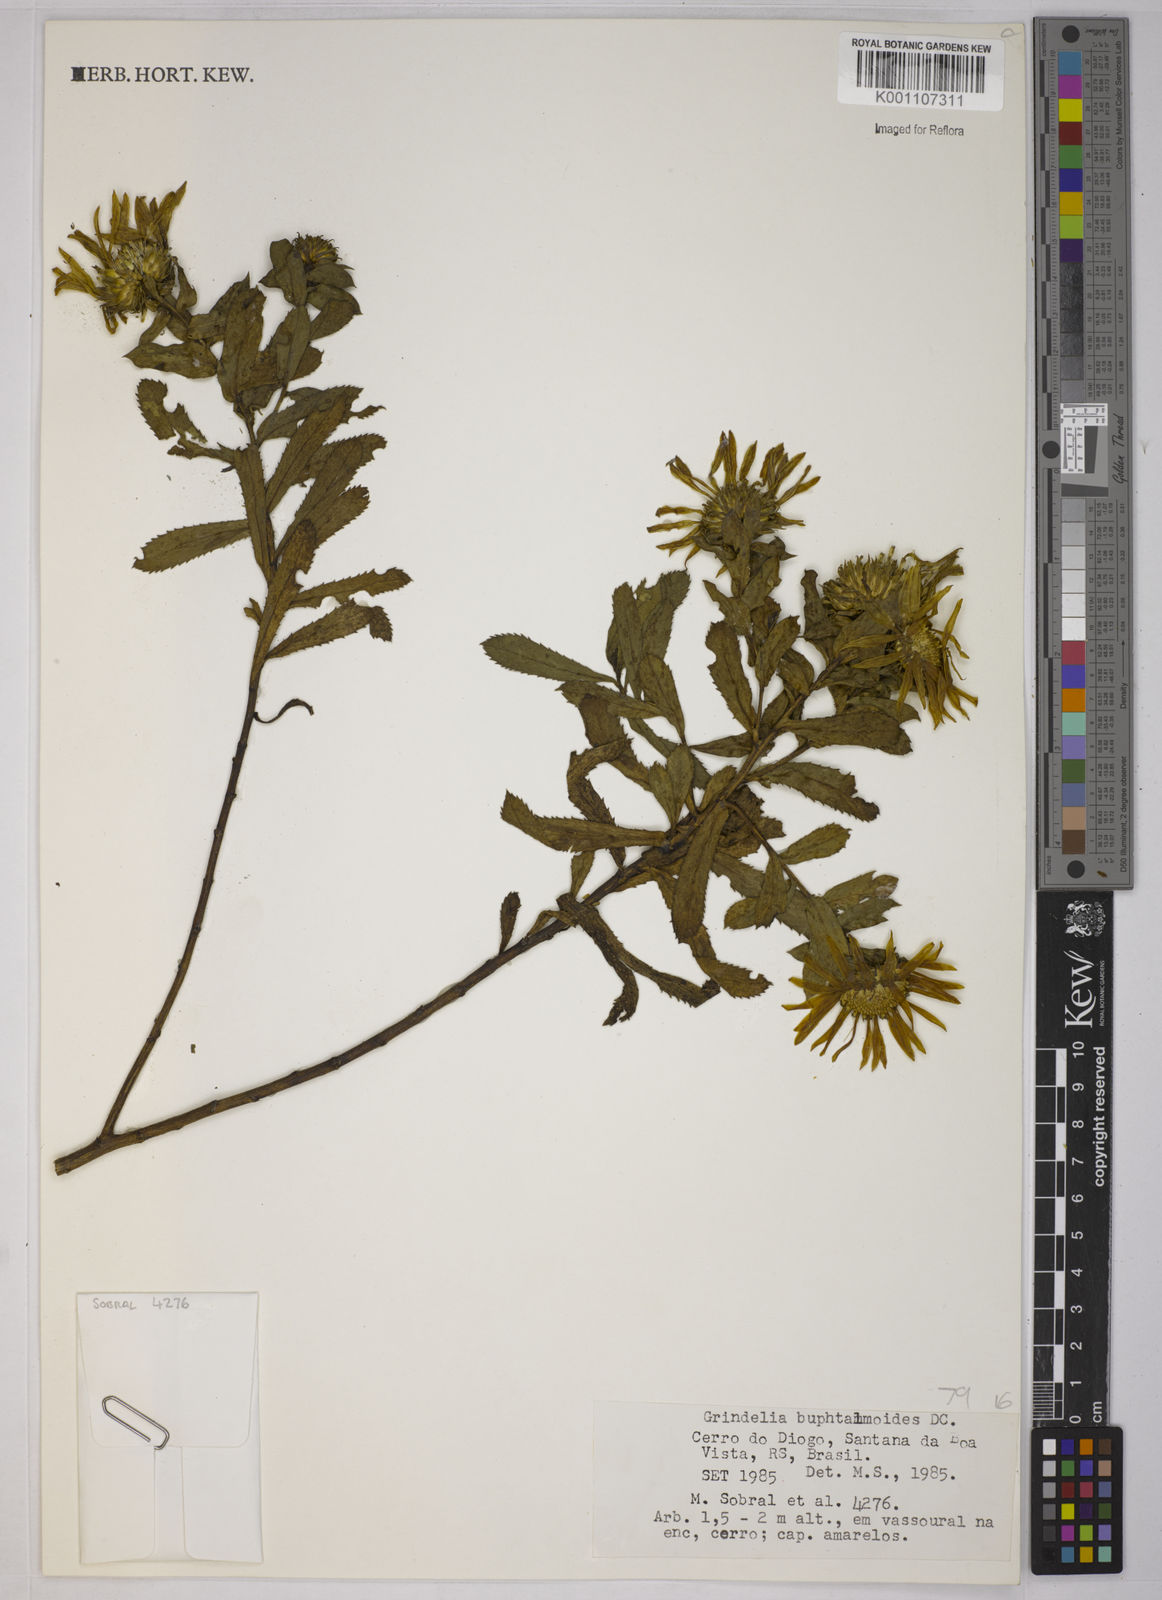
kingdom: Plantae
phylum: Tracheophyta
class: Magnoliopsida
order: Asterales
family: Asteraceae
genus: Grindelia
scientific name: Grindelia buphthalmoides
